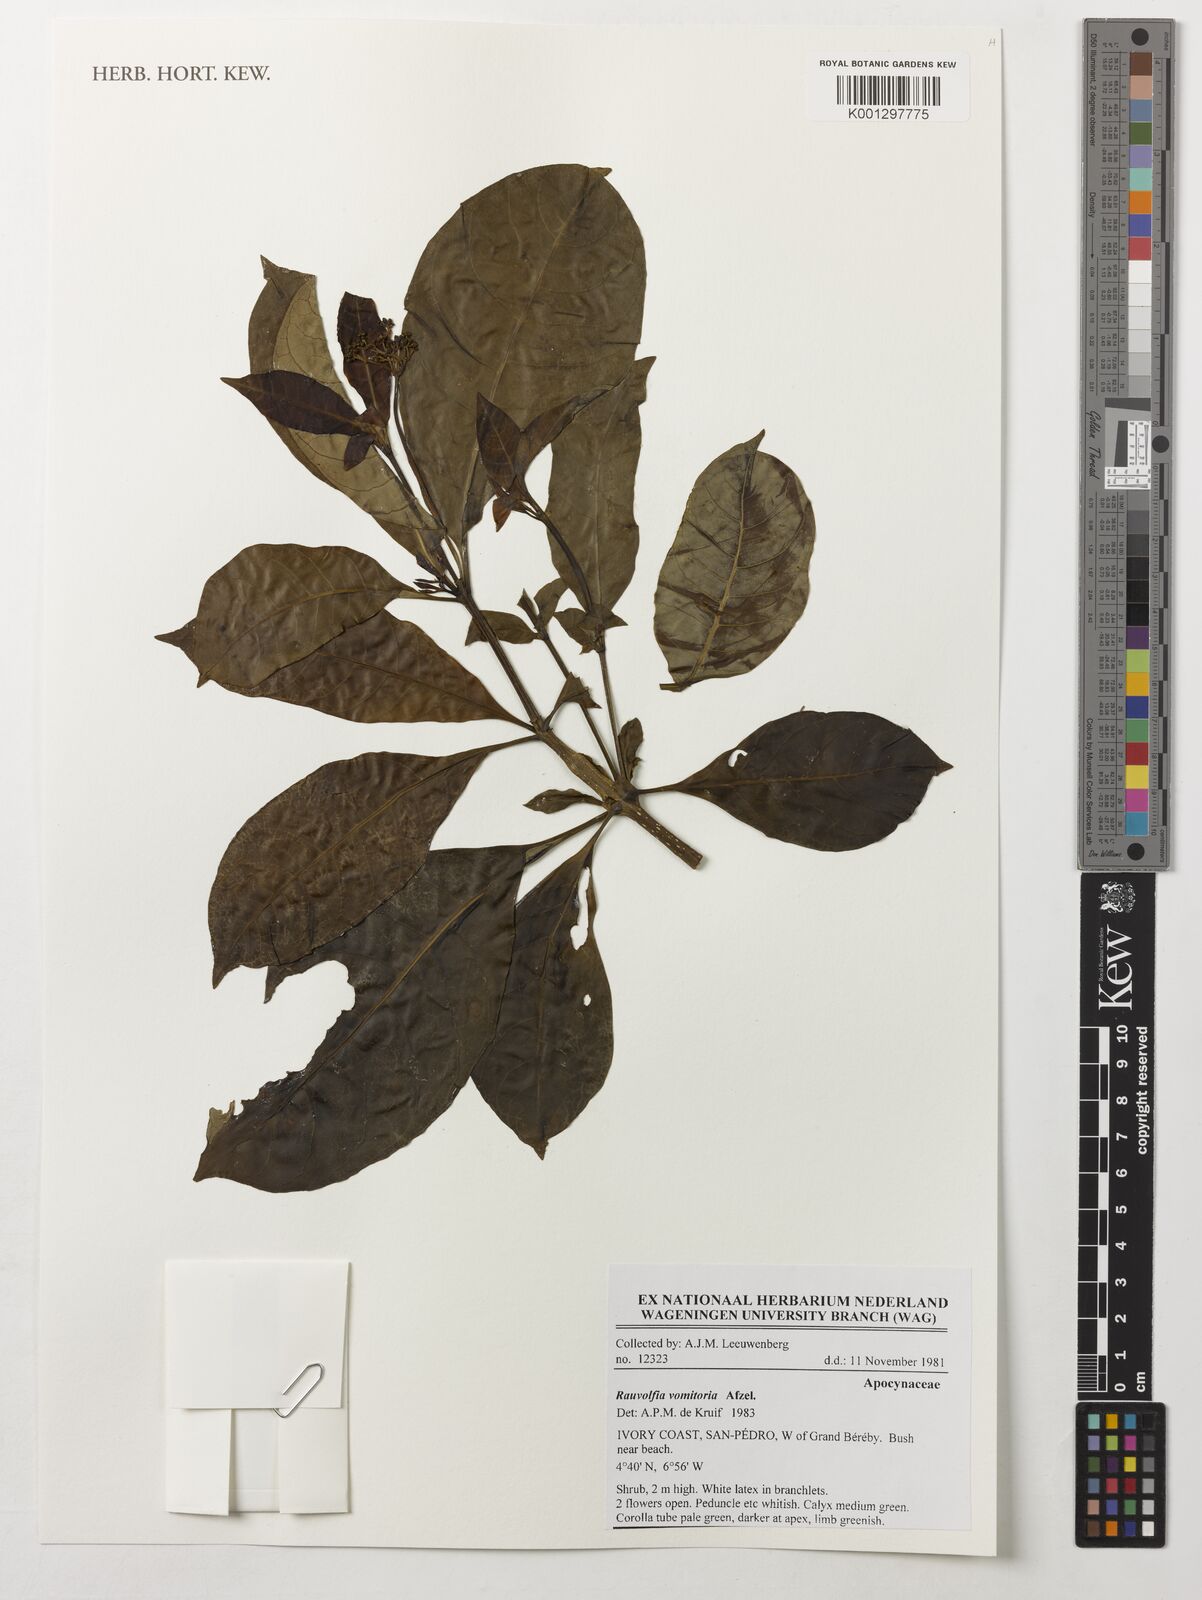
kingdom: Plantae
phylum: Tracheophyta
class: Magnoliopsida
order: Gentianales
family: Apocynaceae
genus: Rauvolfia
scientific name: Rauvolfia vomitoria
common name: Poison devil's-pepper
